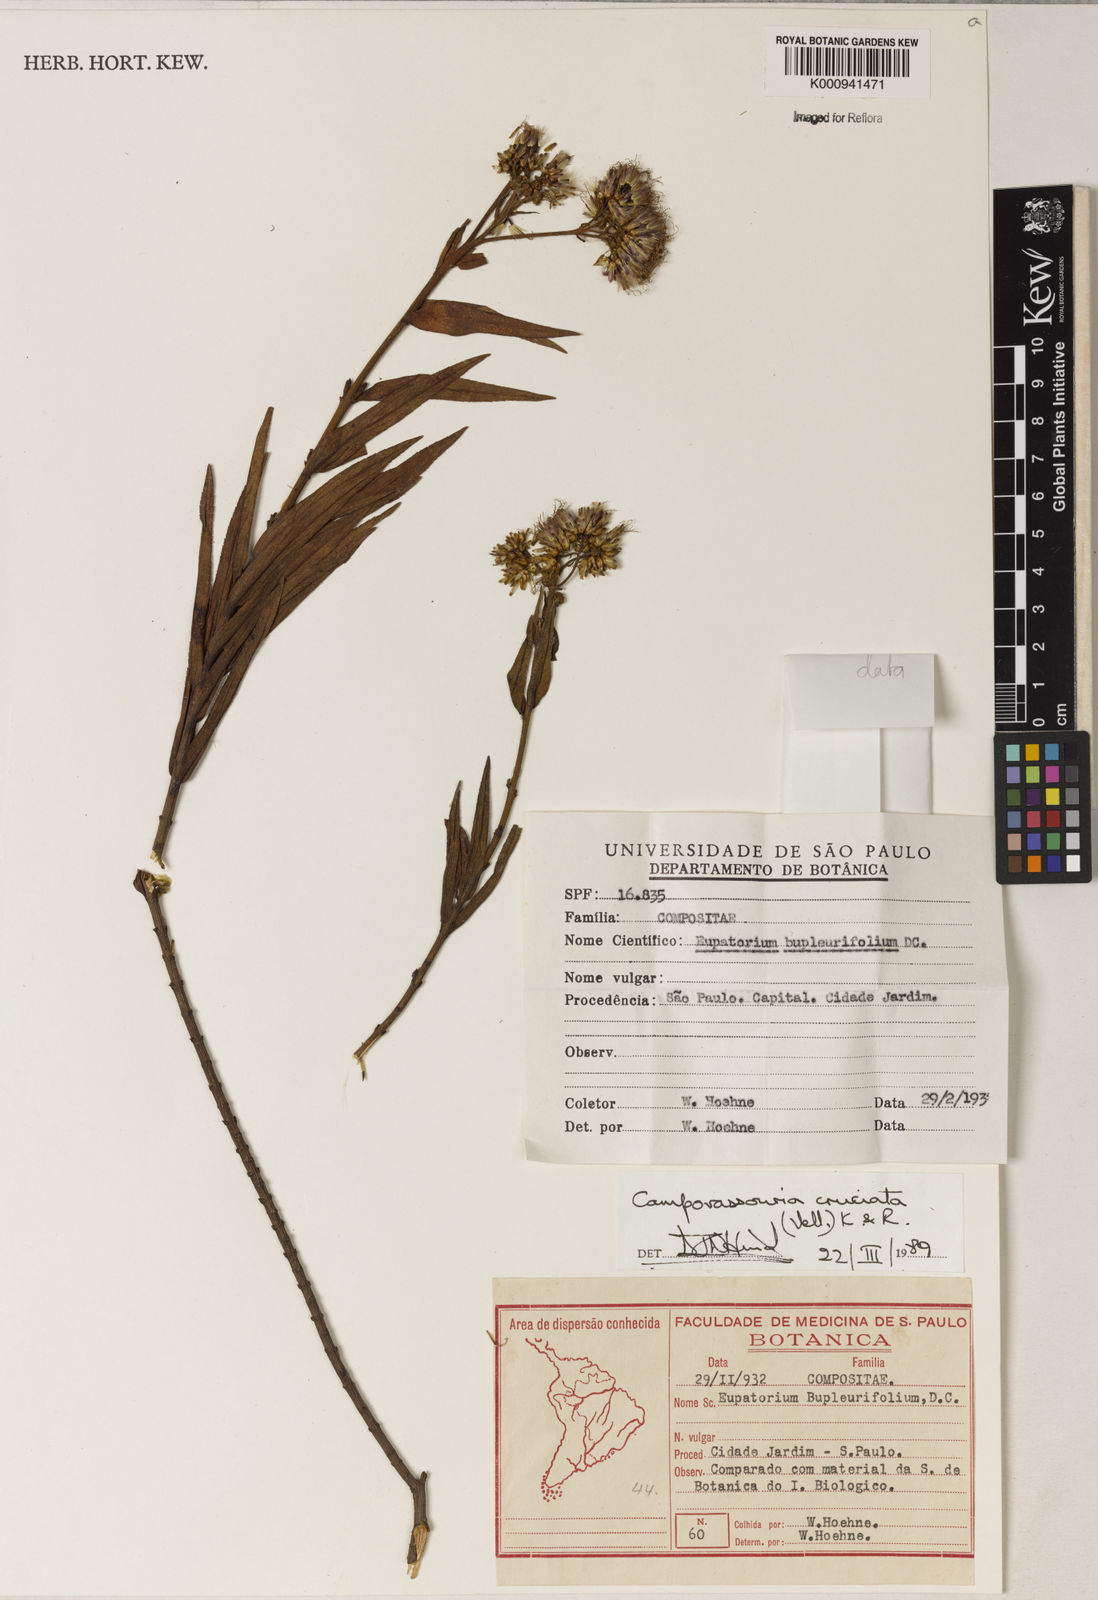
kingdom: Plantae
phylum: Tracheophyta
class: Magnoliopsida
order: Asterales
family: Asteraceae
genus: Campovassouria
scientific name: Campovassouria cruciata
